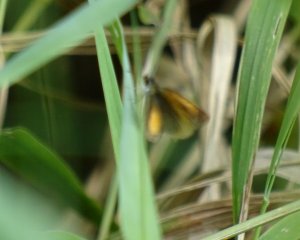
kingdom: Animalia
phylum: Arthropoda
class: Insecta
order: Lepidoptera
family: Hesperiidae
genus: Ancyloxypha
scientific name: Ancyloxypha numitor
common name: Least Skipper
